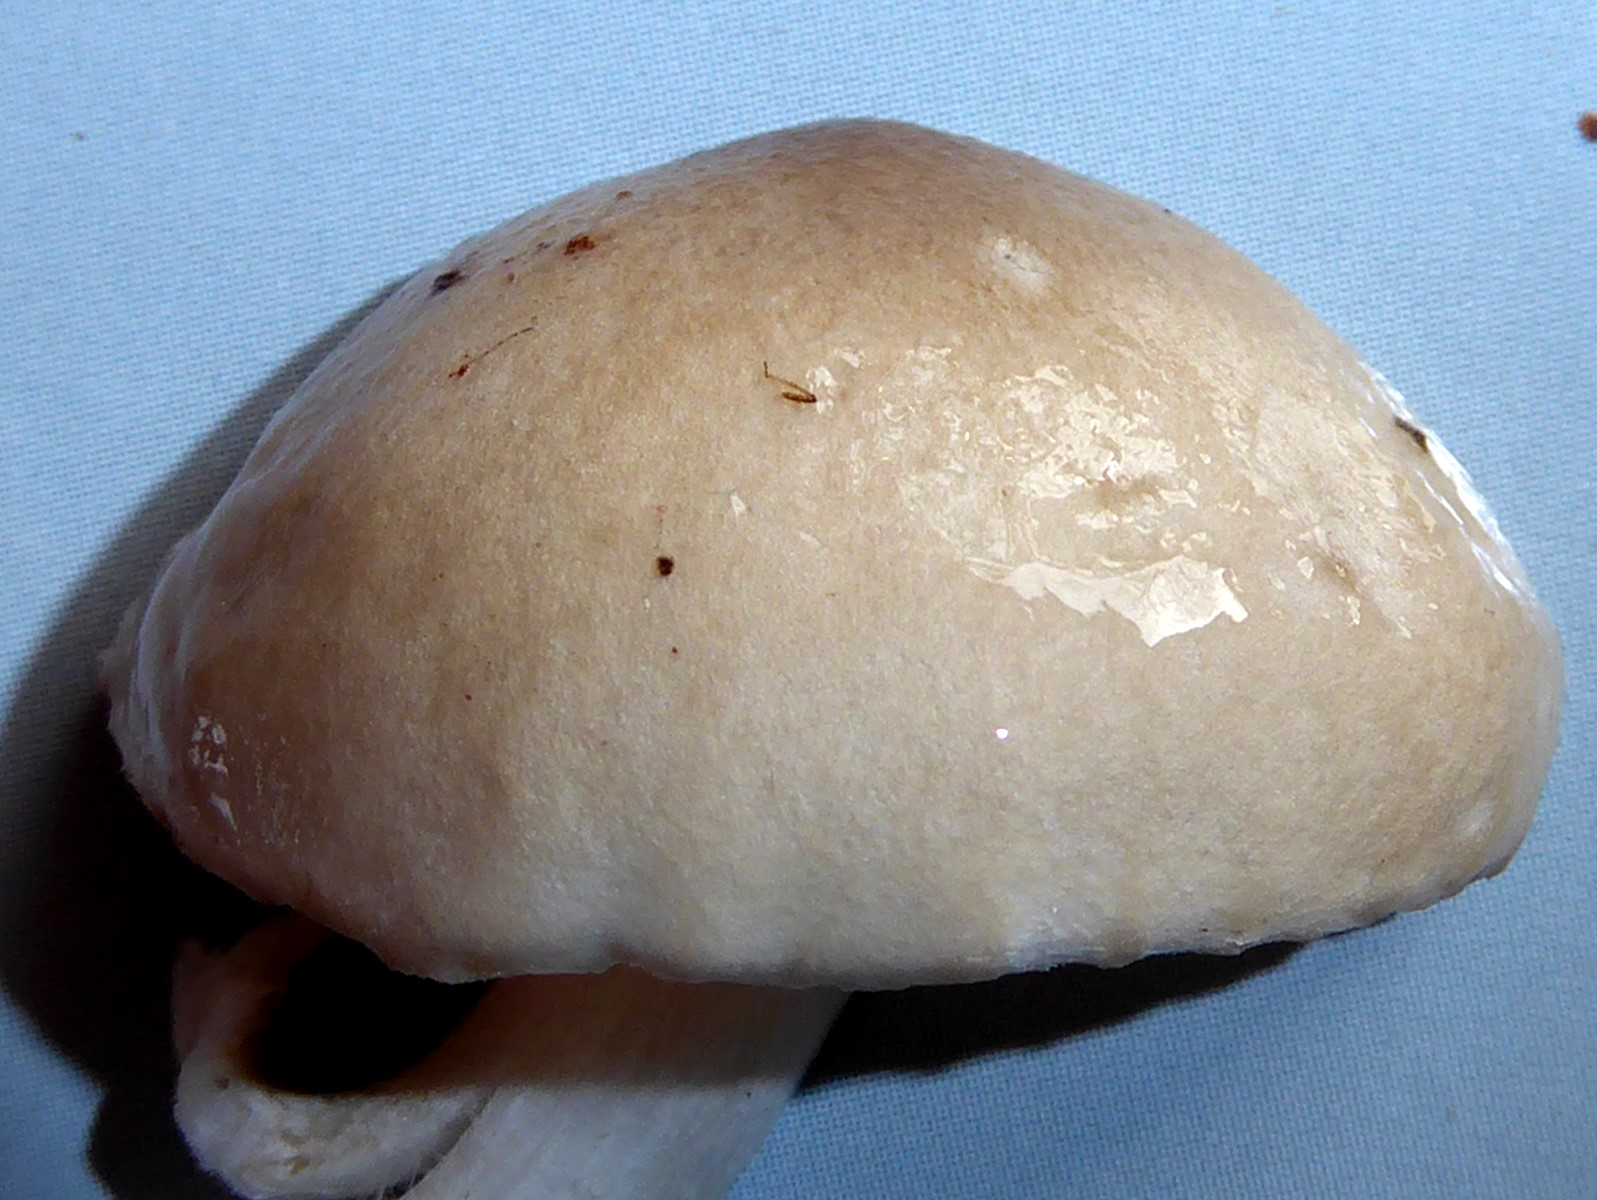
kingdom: Fungi
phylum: Basidiomycota
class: Agaricomycetes
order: Agaricales
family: Hygrophoraceae
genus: Hygrophorus
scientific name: Hygrophorus
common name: sneglehat
